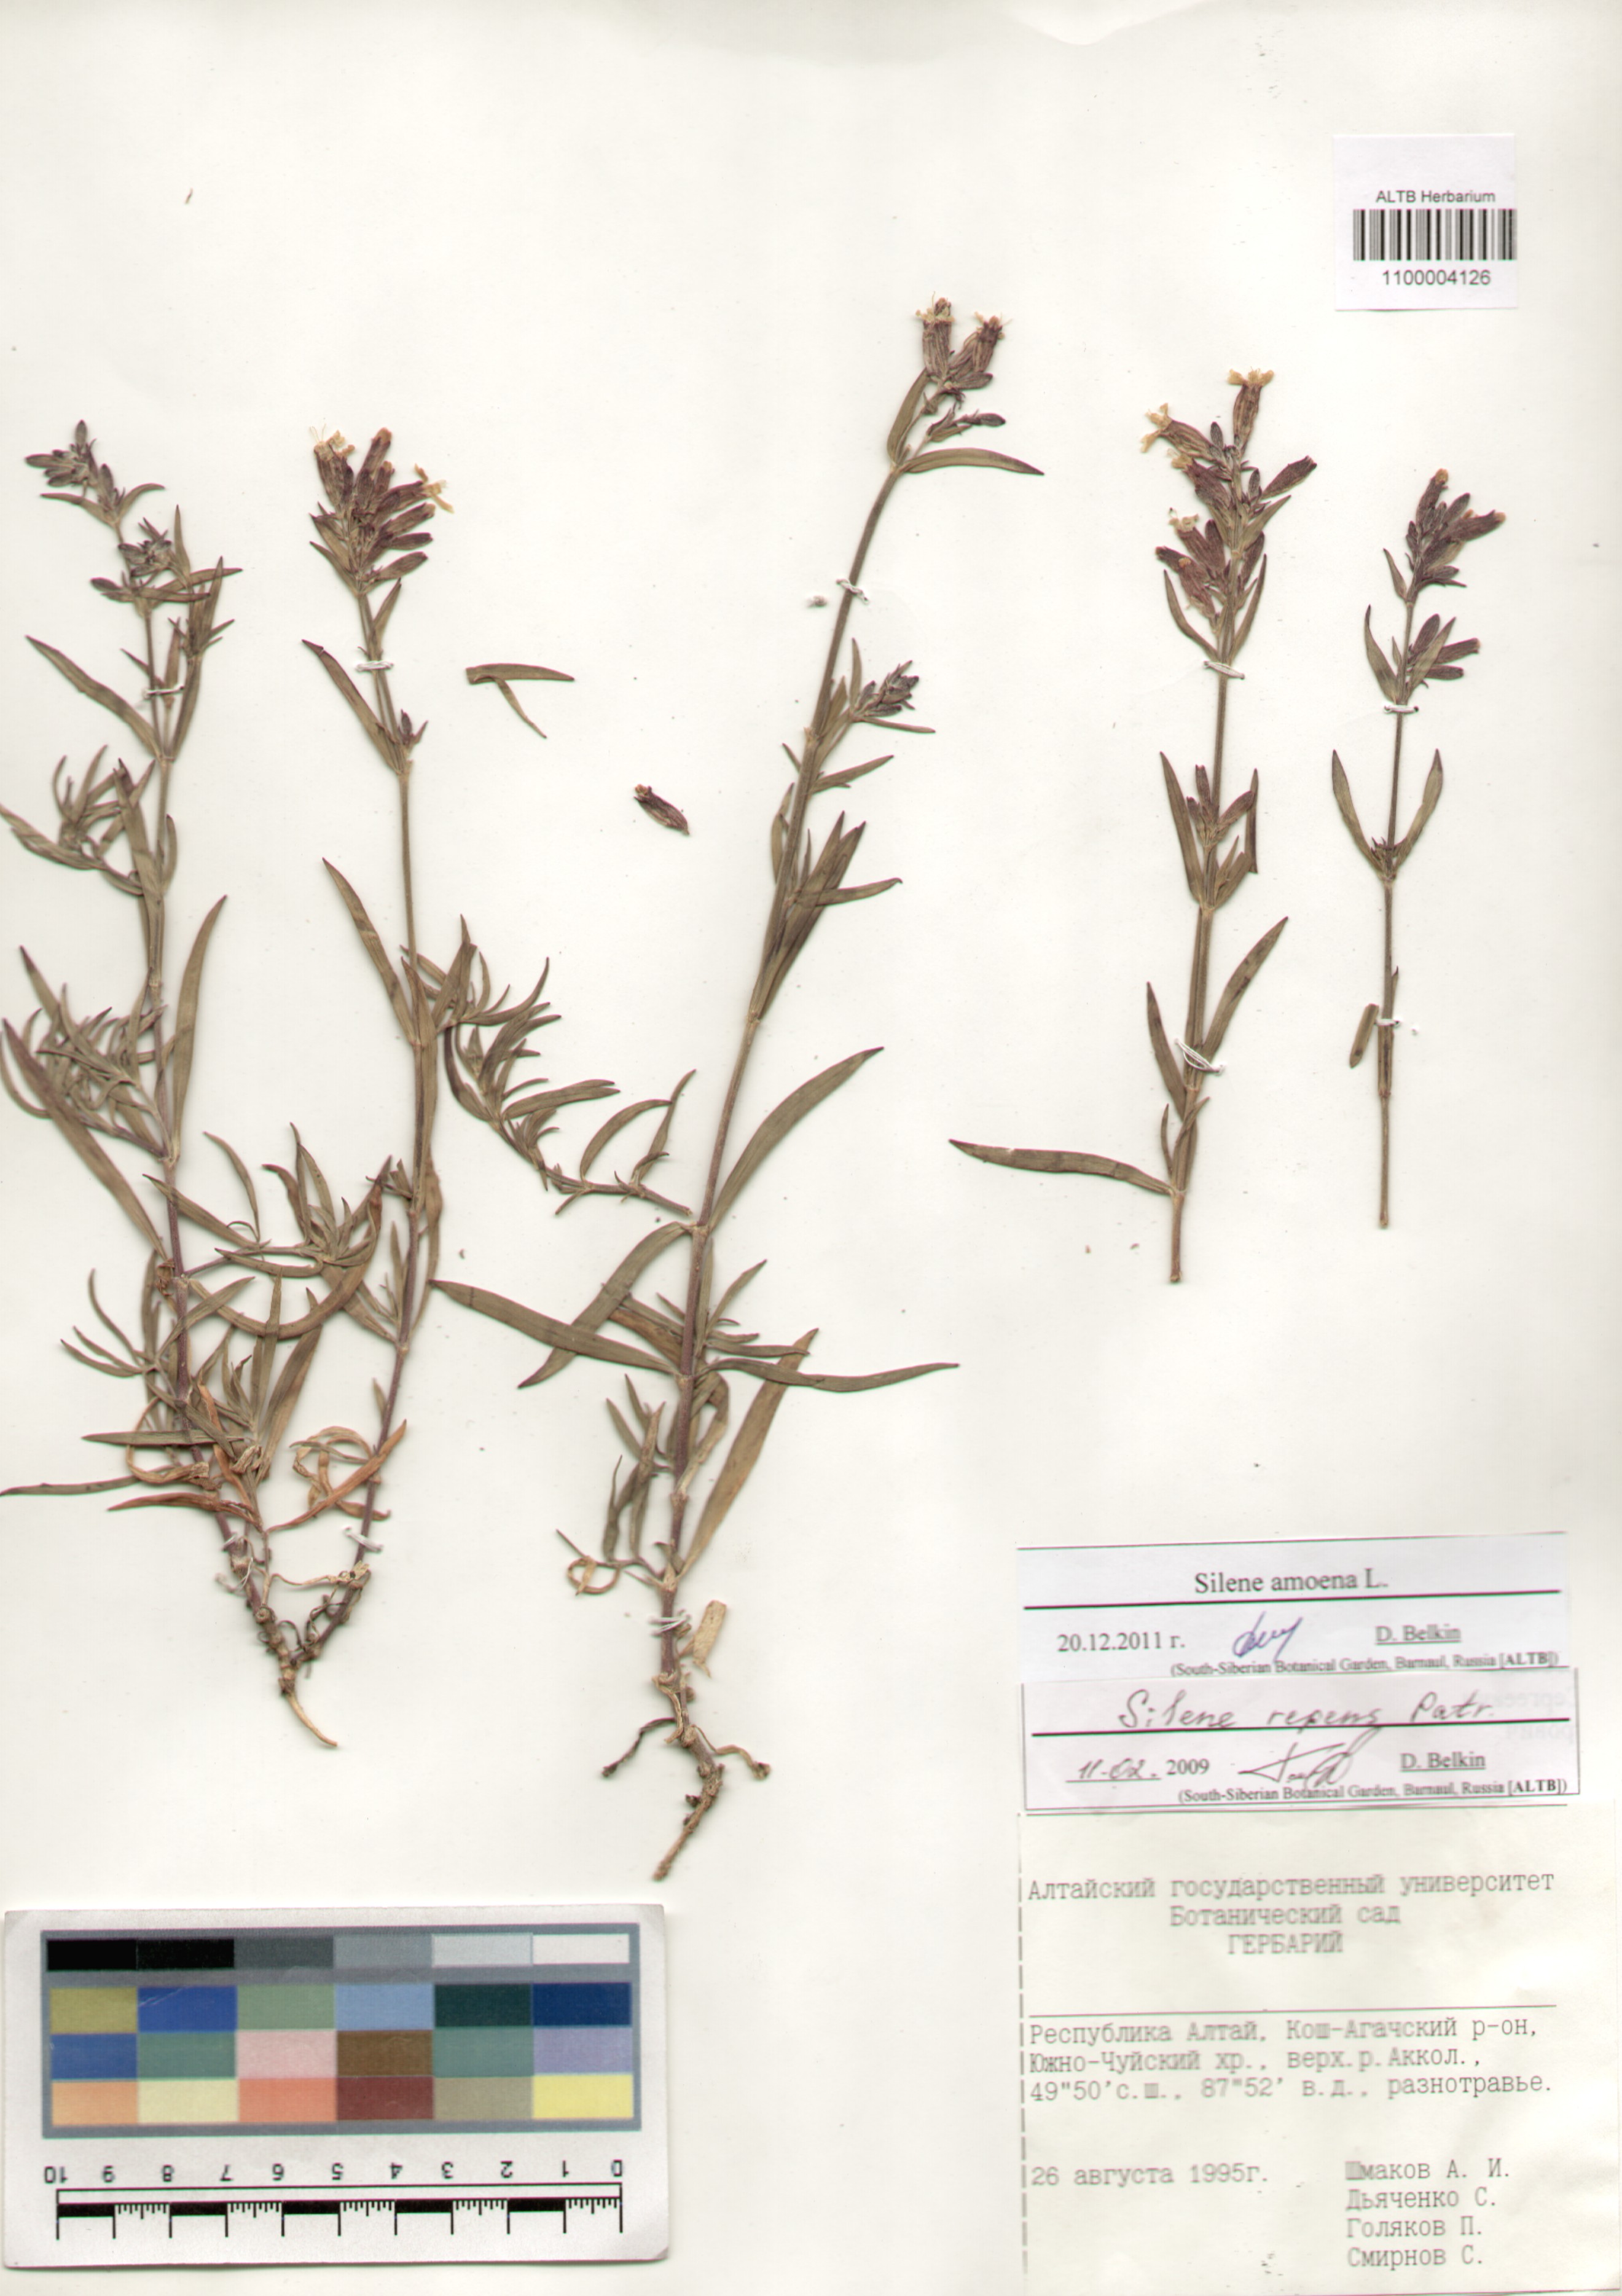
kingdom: Plantae
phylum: Tracheophyta
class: Magnoliopsida
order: Caryophyllales
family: Caryophyllaceae
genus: Silene
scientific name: Silene amoena
